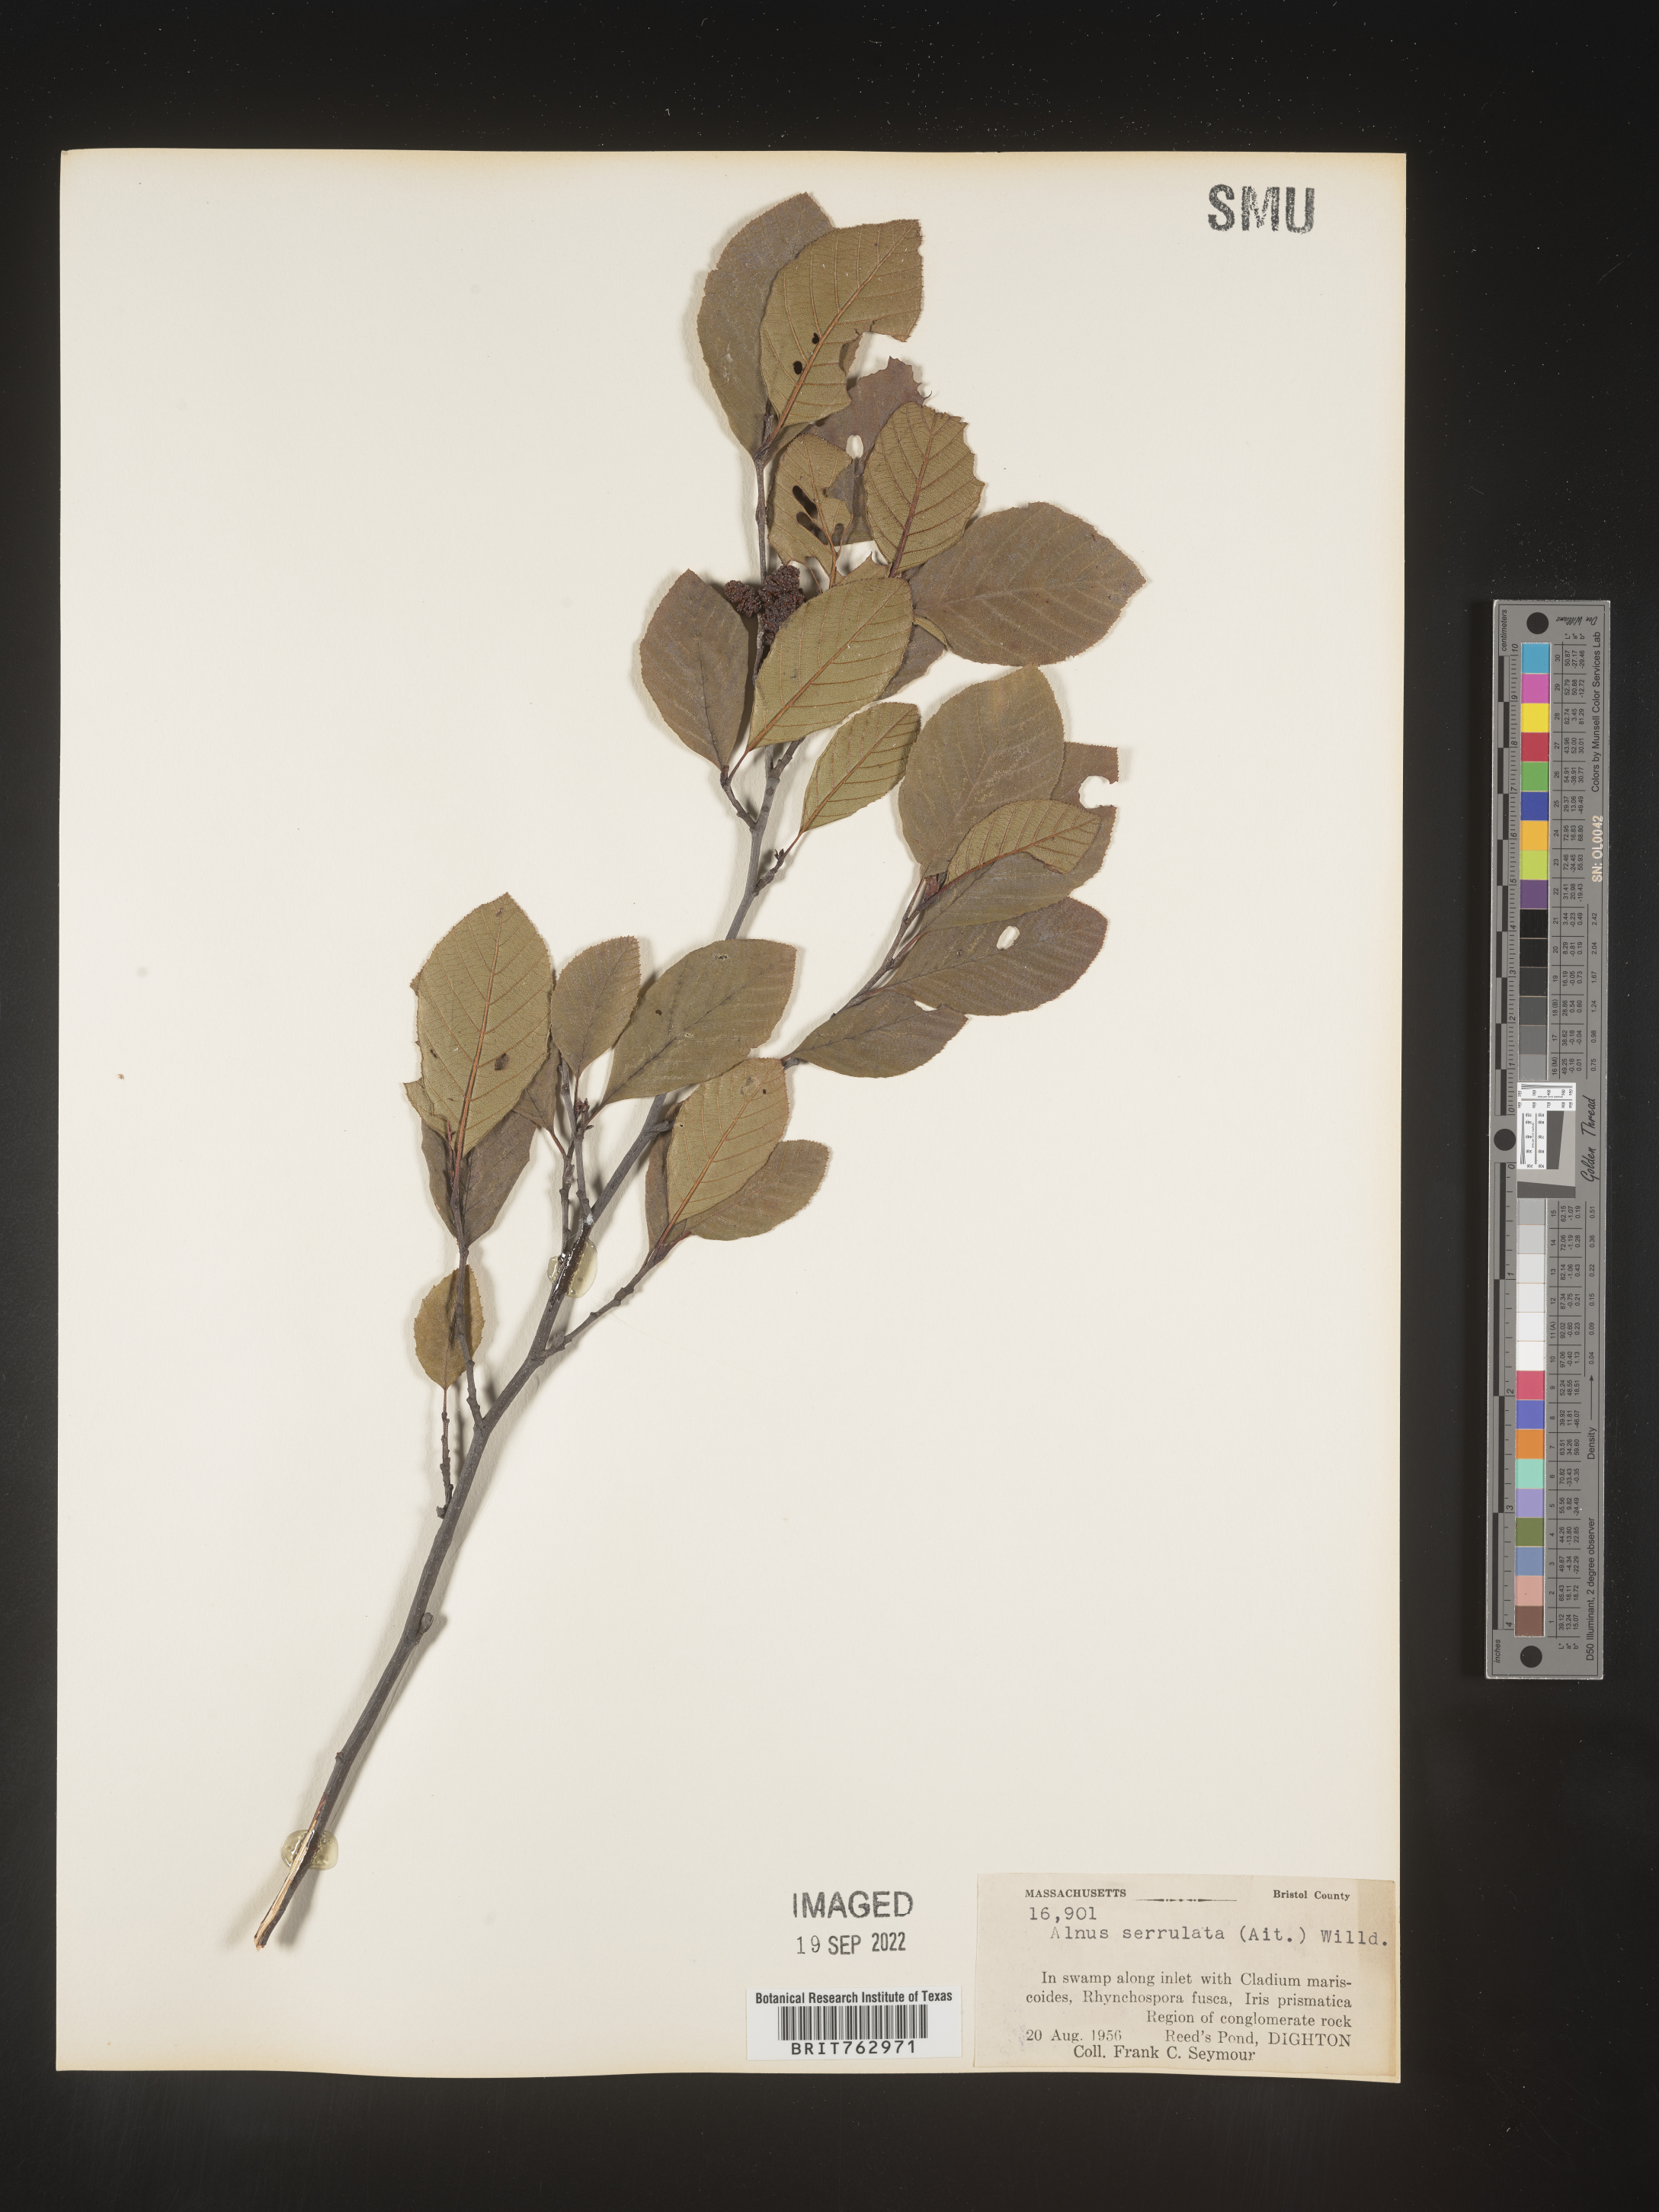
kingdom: Plantae
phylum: Tracheophyta
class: Magnoliopsida
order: Fagales
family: Betulaceae
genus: Alnus
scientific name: Alnus serrulata
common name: Hazel alder
